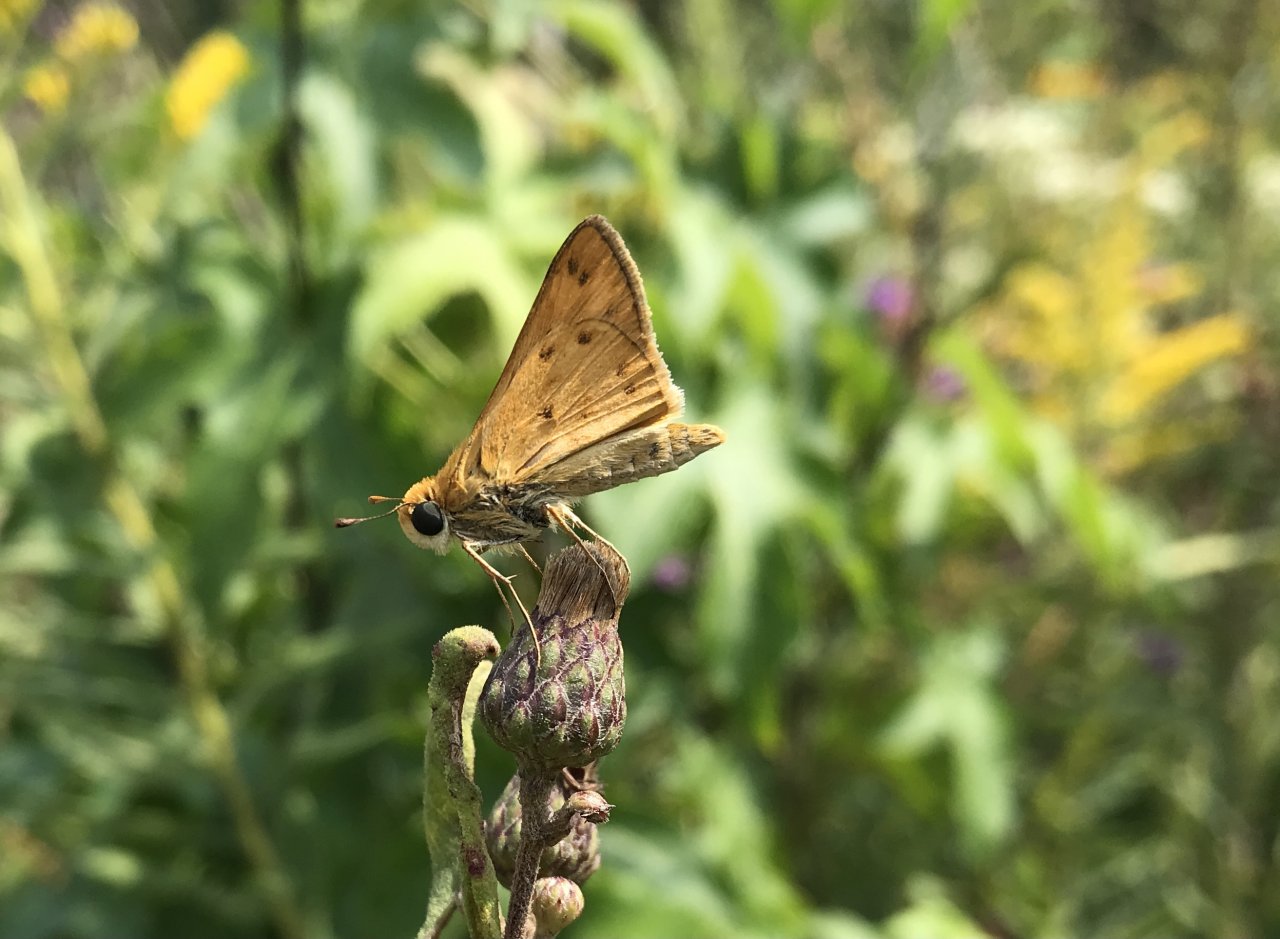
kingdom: Animalia
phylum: Arthropoda
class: Insecta
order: Lepidoptera
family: Hesperiidae
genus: Hylephila
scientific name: Hylephila phyleus
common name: Fiery Skipper
